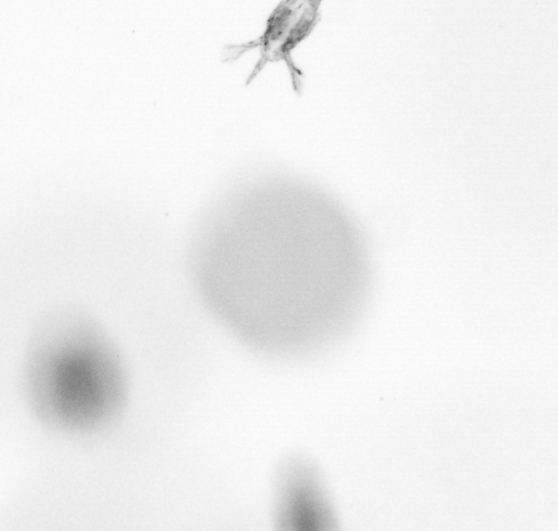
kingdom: Animalia
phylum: Arthropoda
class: Copepoda
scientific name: Copepoda
